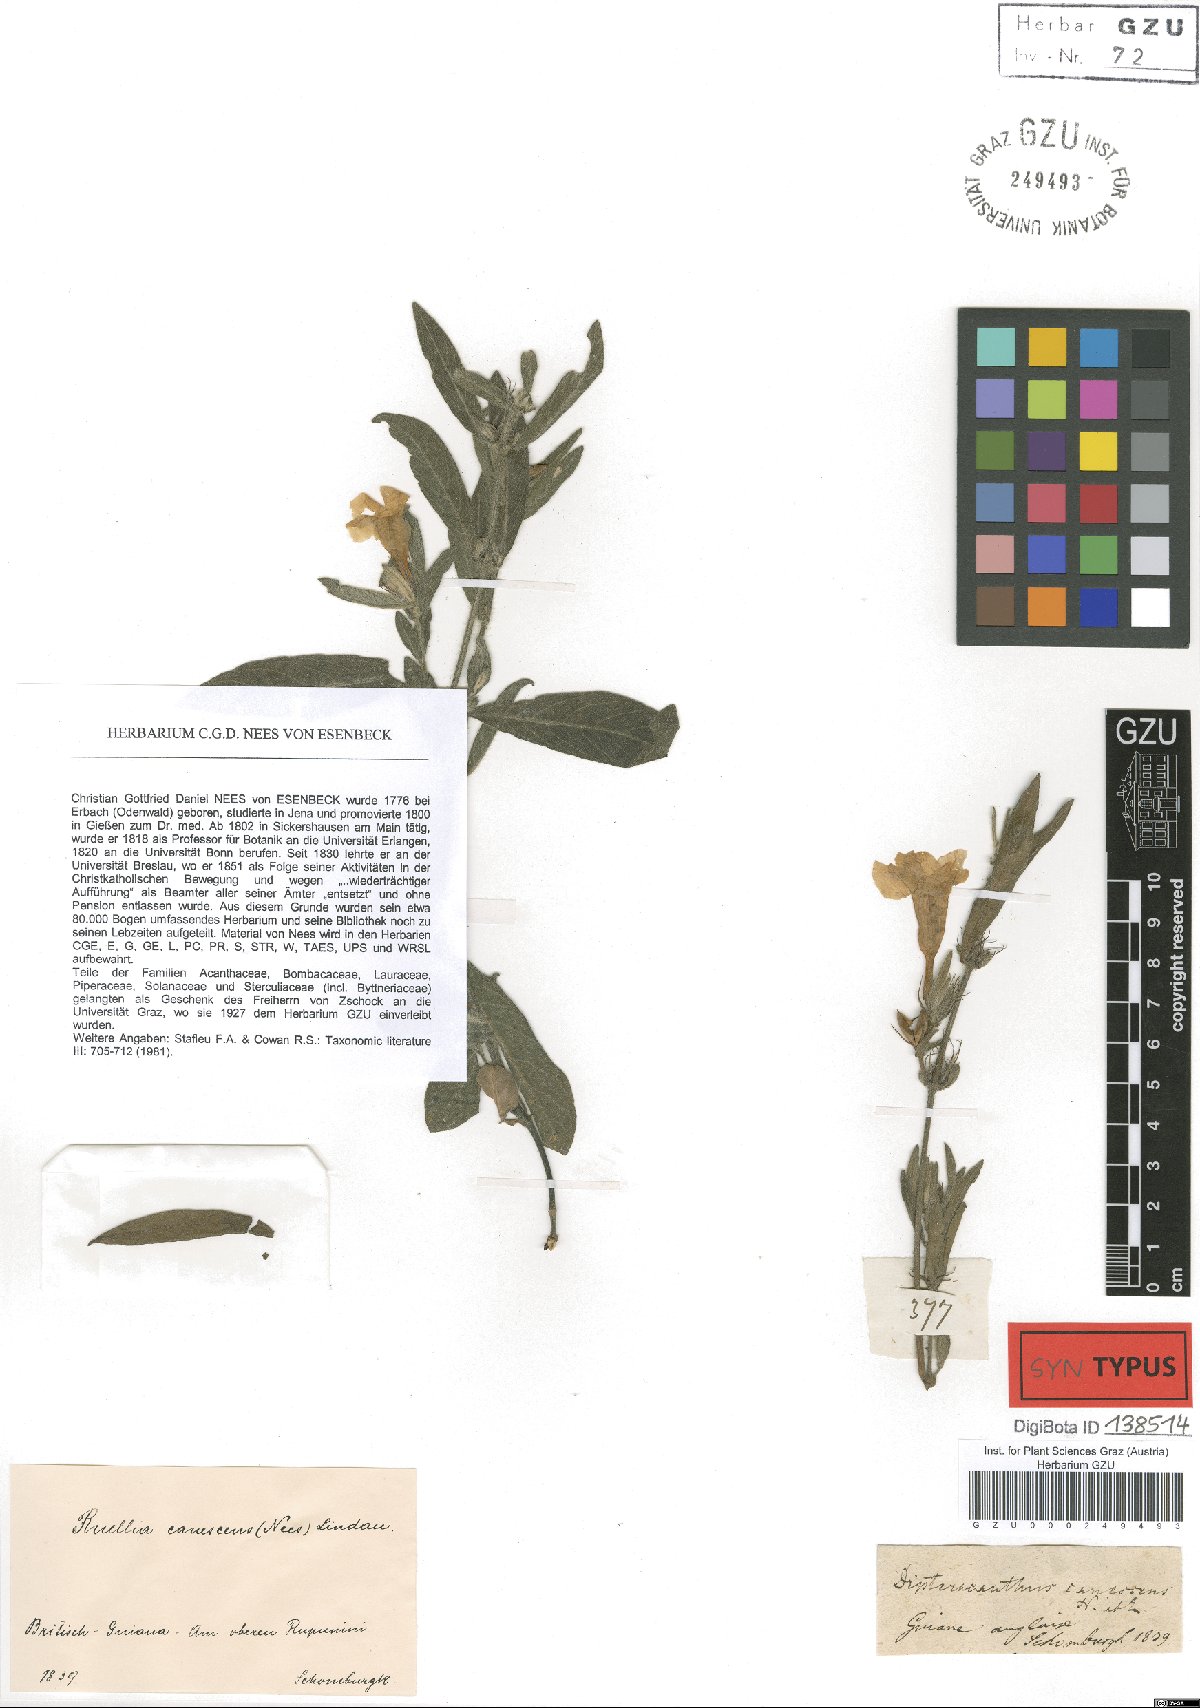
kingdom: Plantae
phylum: Tracheophyta
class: Magnoliopsida
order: Lamiales
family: Acanthaceae
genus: Ruellia
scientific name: Ruellia geminiflora
